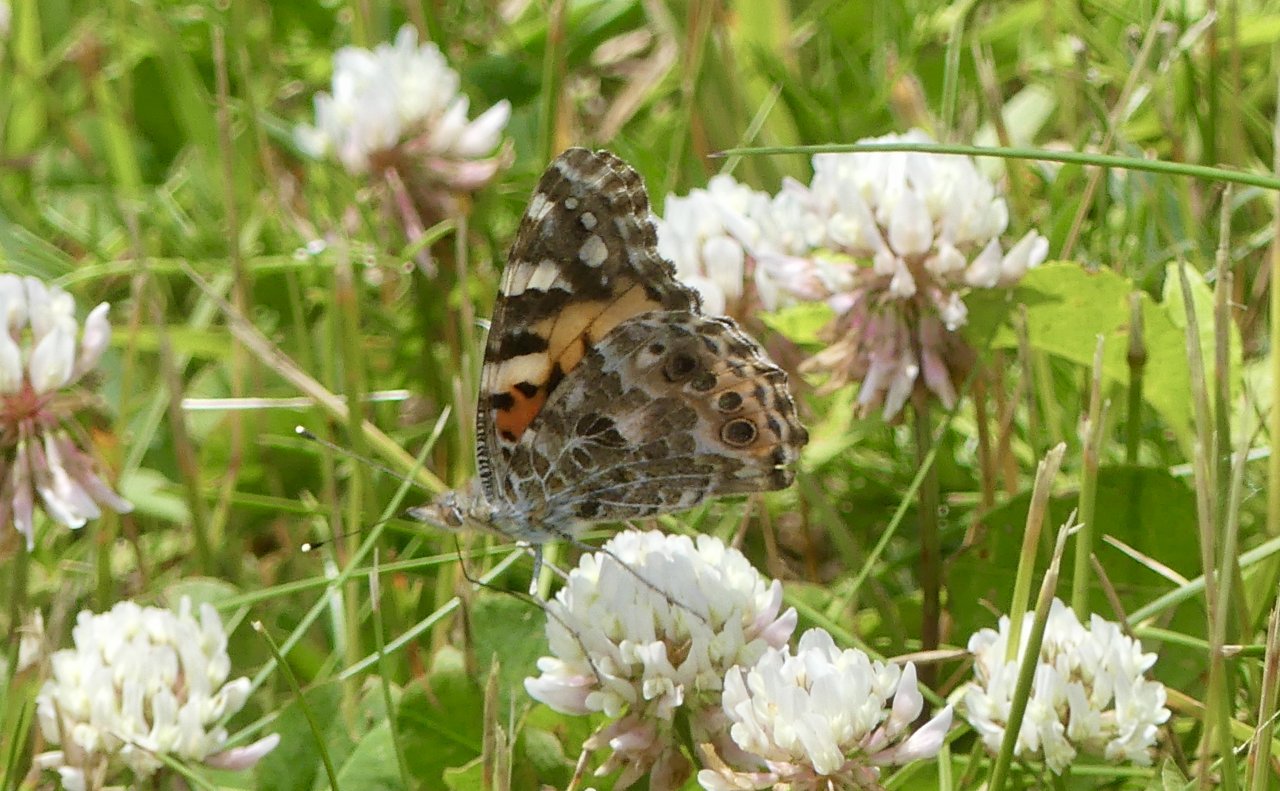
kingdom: Animalia
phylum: Arthropoda
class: Insecta
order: Lepidoptera
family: Nymphalidae
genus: Vanessa
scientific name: Vanessa cardui
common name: Painted Lady
